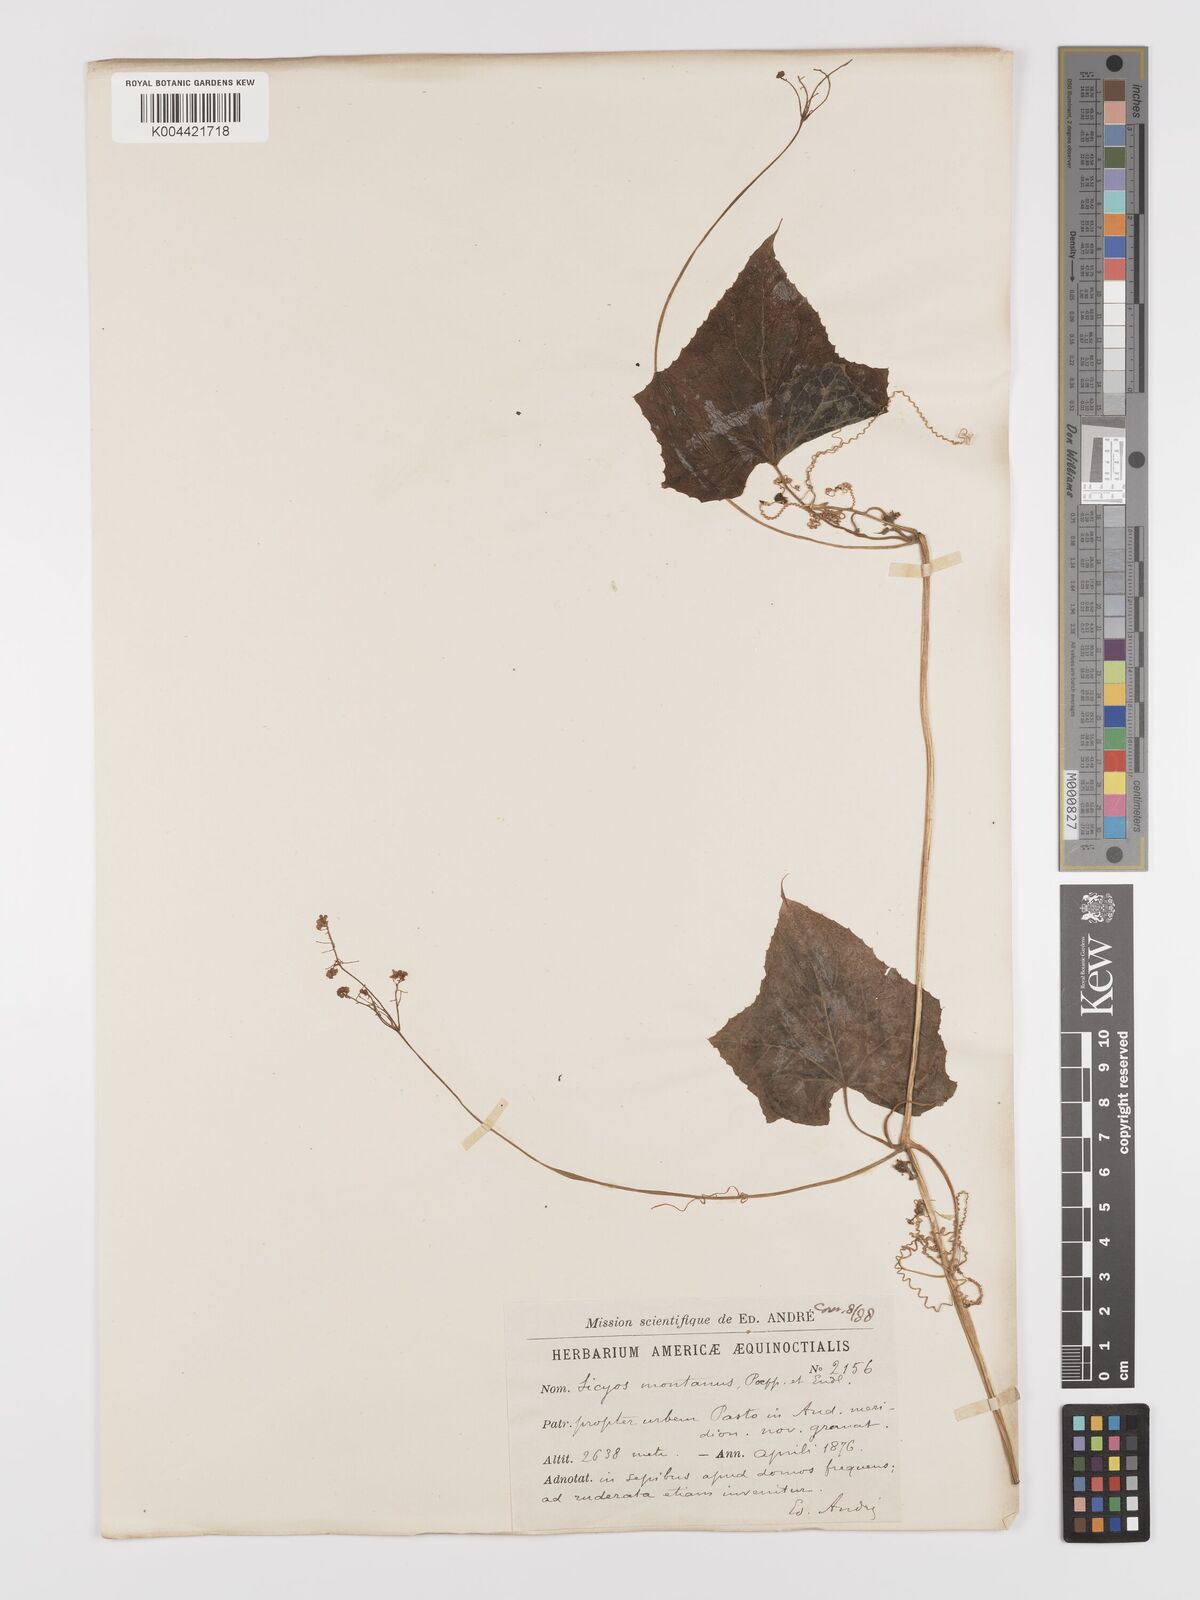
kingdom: Plantae
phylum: Tracheophyta
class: Magnoliopsida
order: Cucurbitales
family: Cucurbitaceae
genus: Sicyos
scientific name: Sicyos
